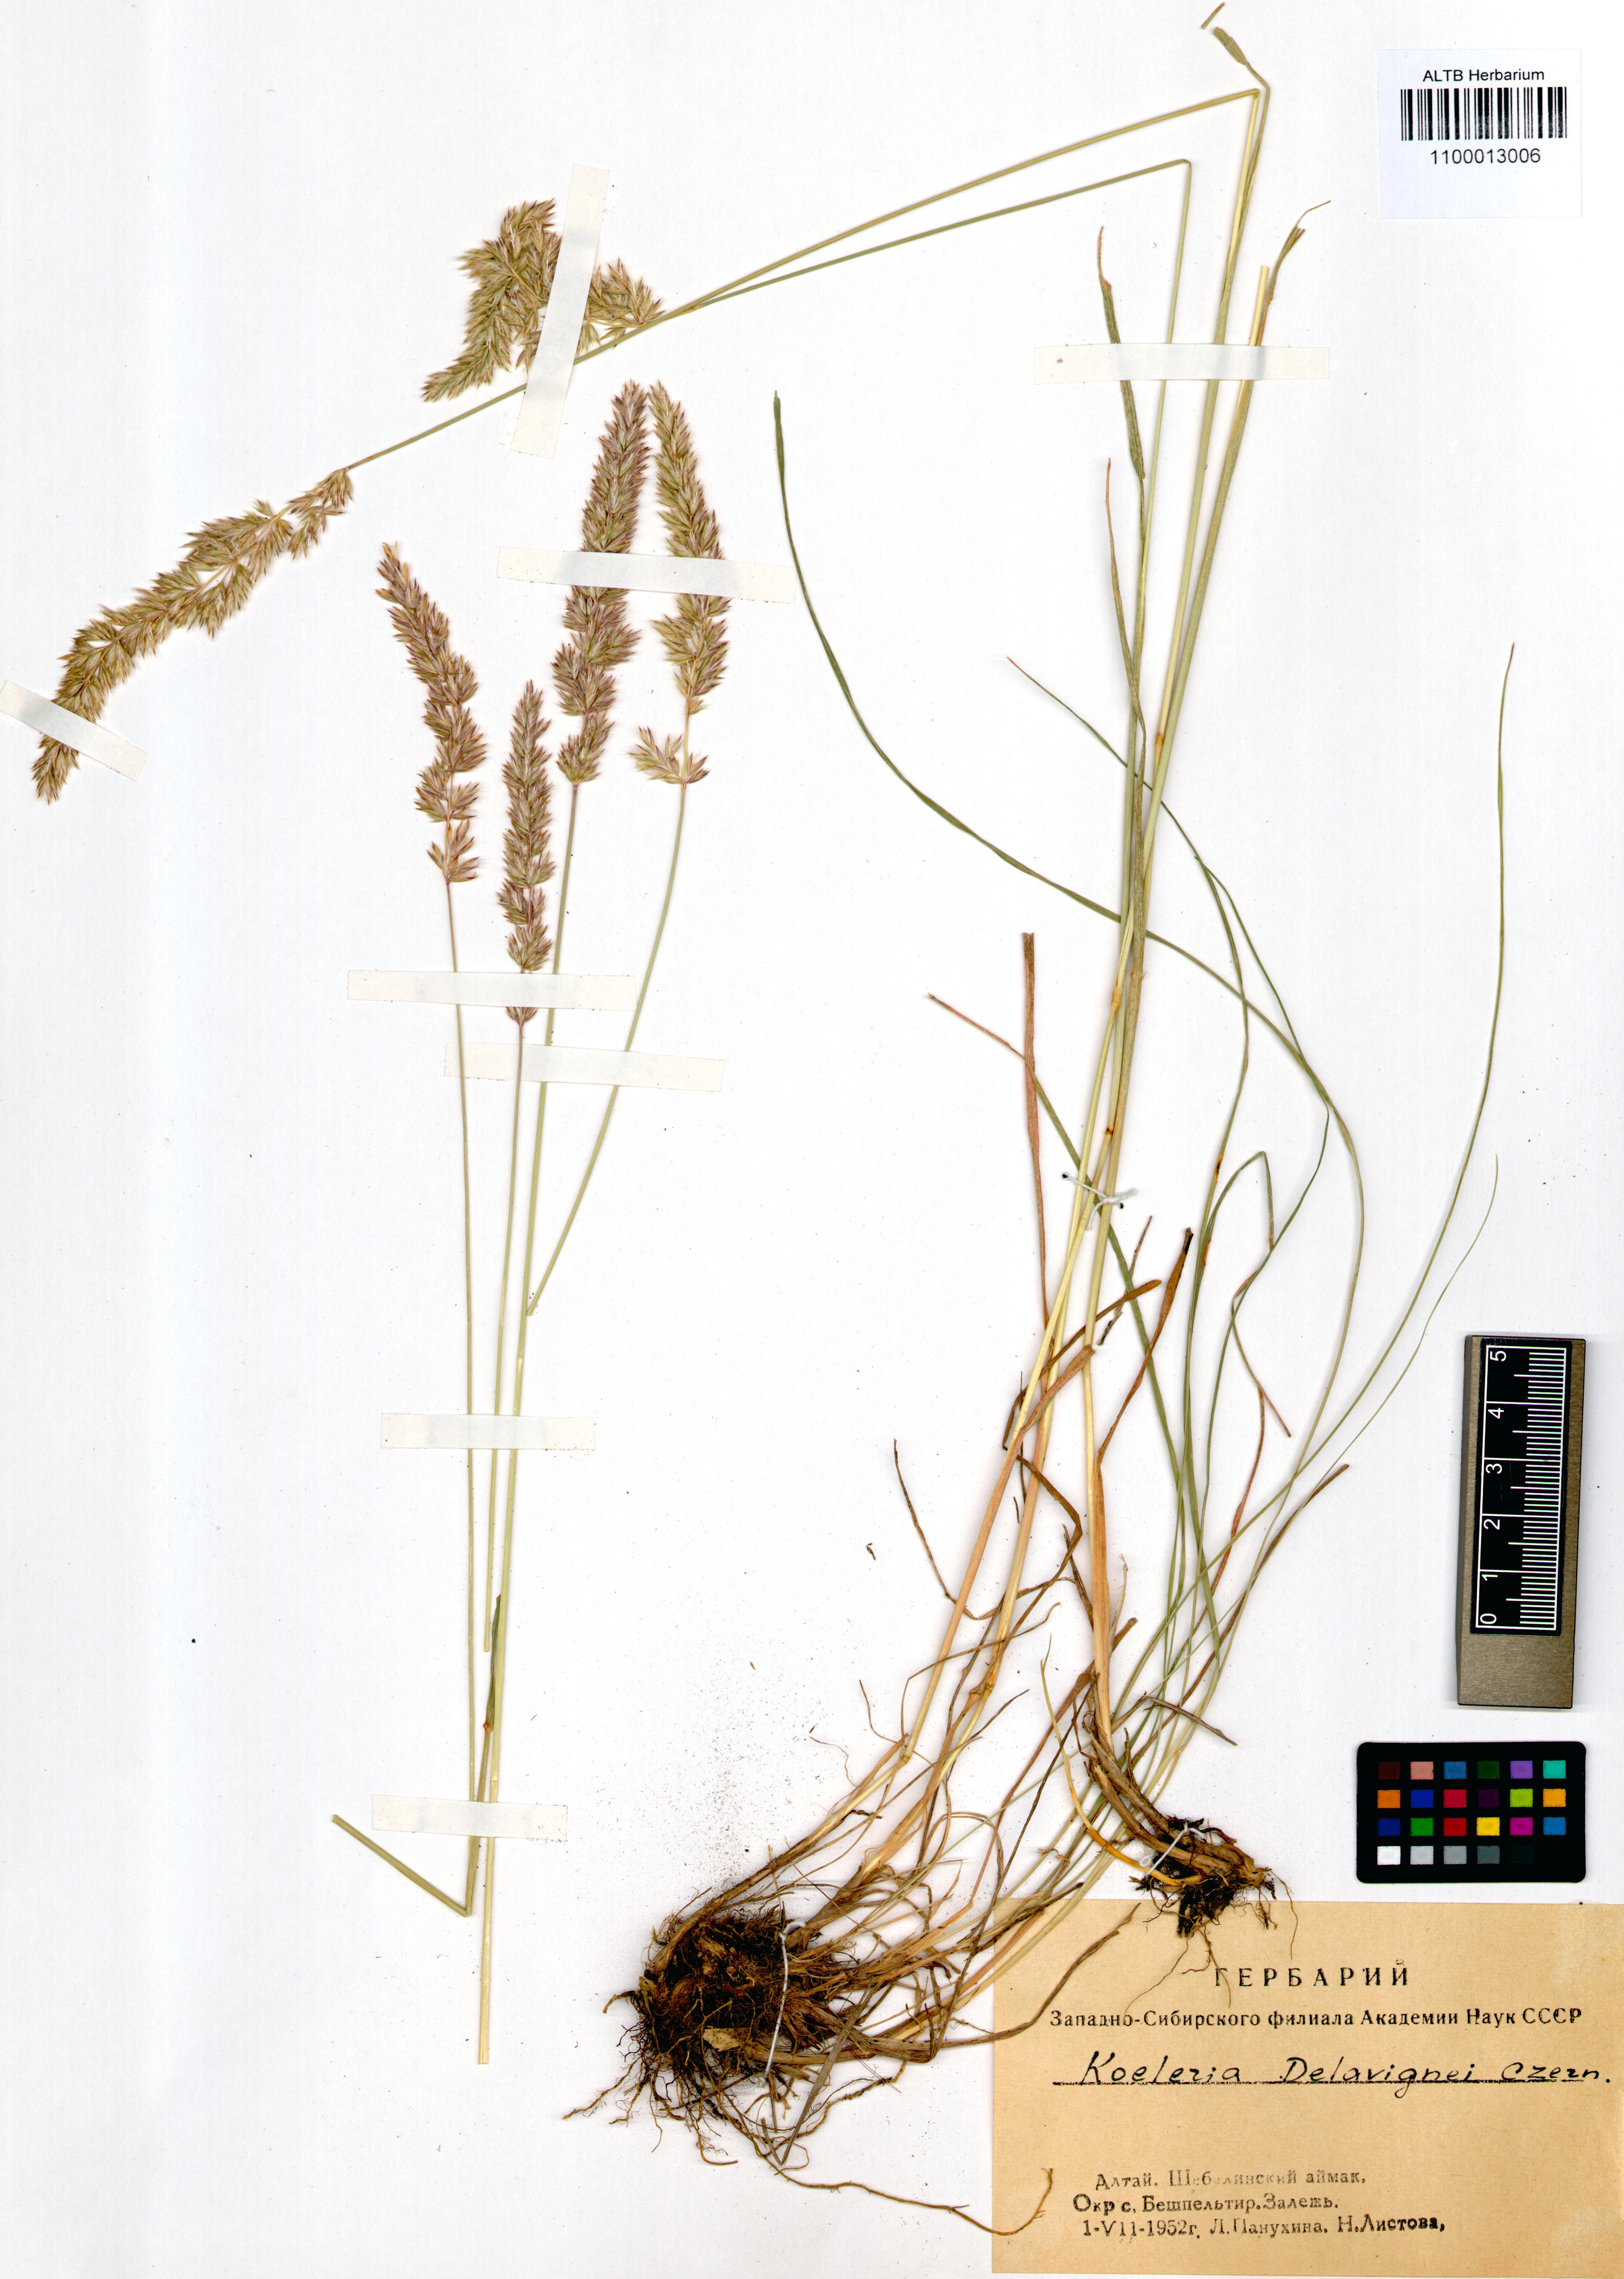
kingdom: Plantae
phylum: Tracheophyta
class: Liliopsida
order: Poales
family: Poaceae
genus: Koeleria
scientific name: Koeleria delavignei
